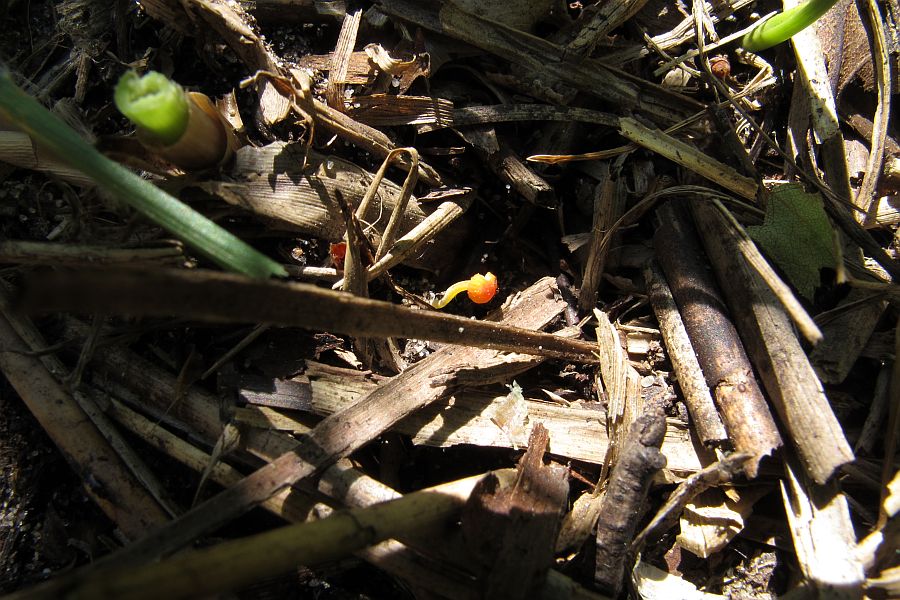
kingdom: Fungi
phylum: Basidiomycota
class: Agaricomycetes
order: Agaricales
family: Mycenaceae
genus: Mycena
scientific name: Mycena acicula
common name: orange huesvamp
